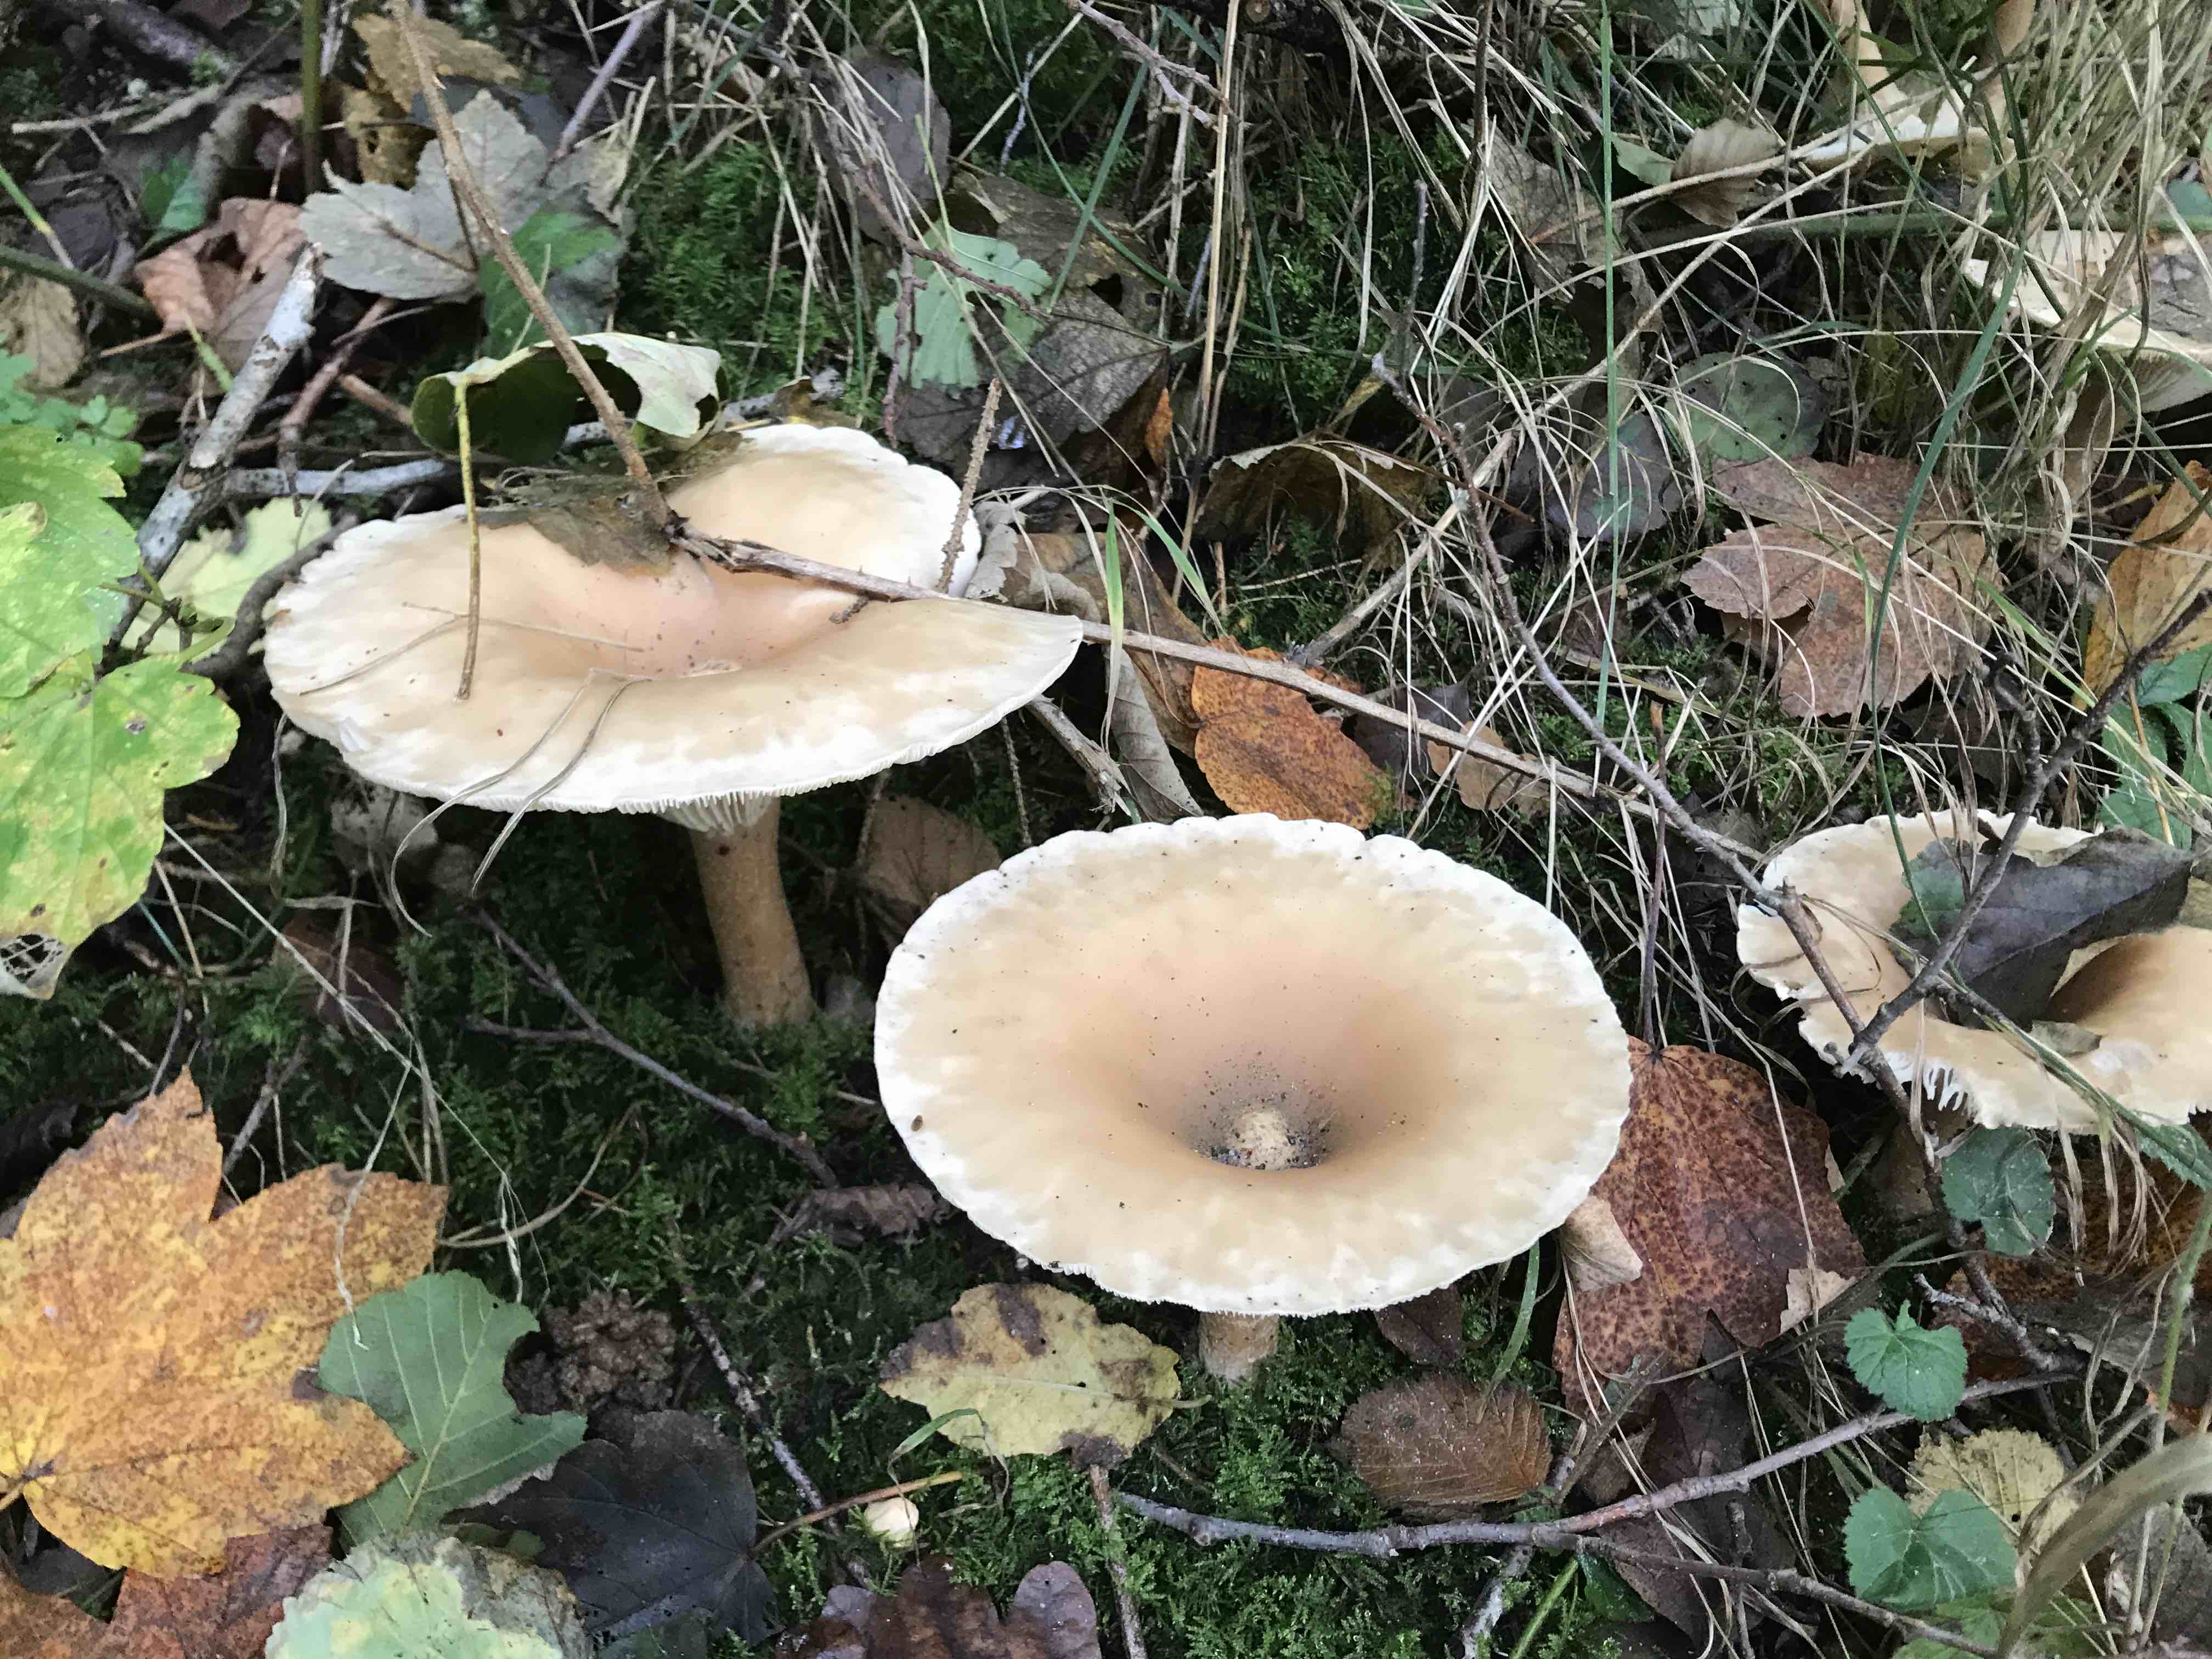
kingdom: Fungi
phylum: Basidiomycota
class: Agaricomycetes
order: Agaricales
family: Tricholomataceae
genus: Infundibulicybe
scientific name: Infundibulicybe geotropa
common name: stor tragthat
